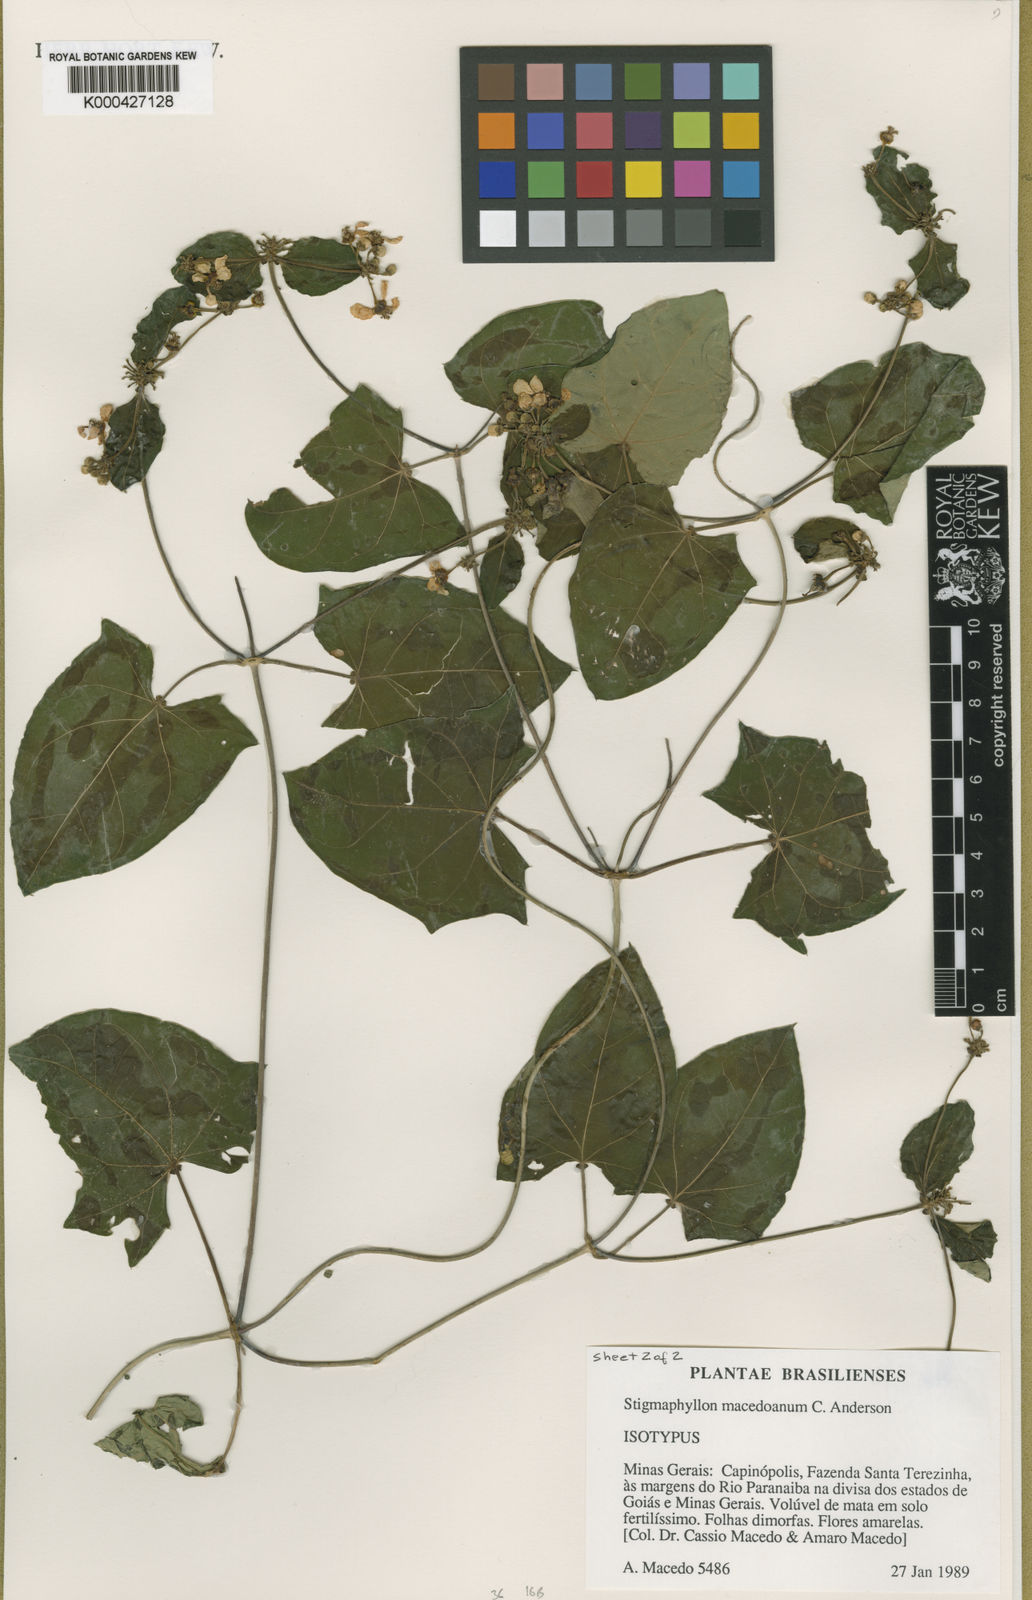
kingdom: Plantae
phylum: Tracheophyta
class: Magnoliopsida
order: Malpighiales
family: Malpighiaceae
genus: Stigmaphyllon
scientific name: Stigmaphyllon macedoanum
